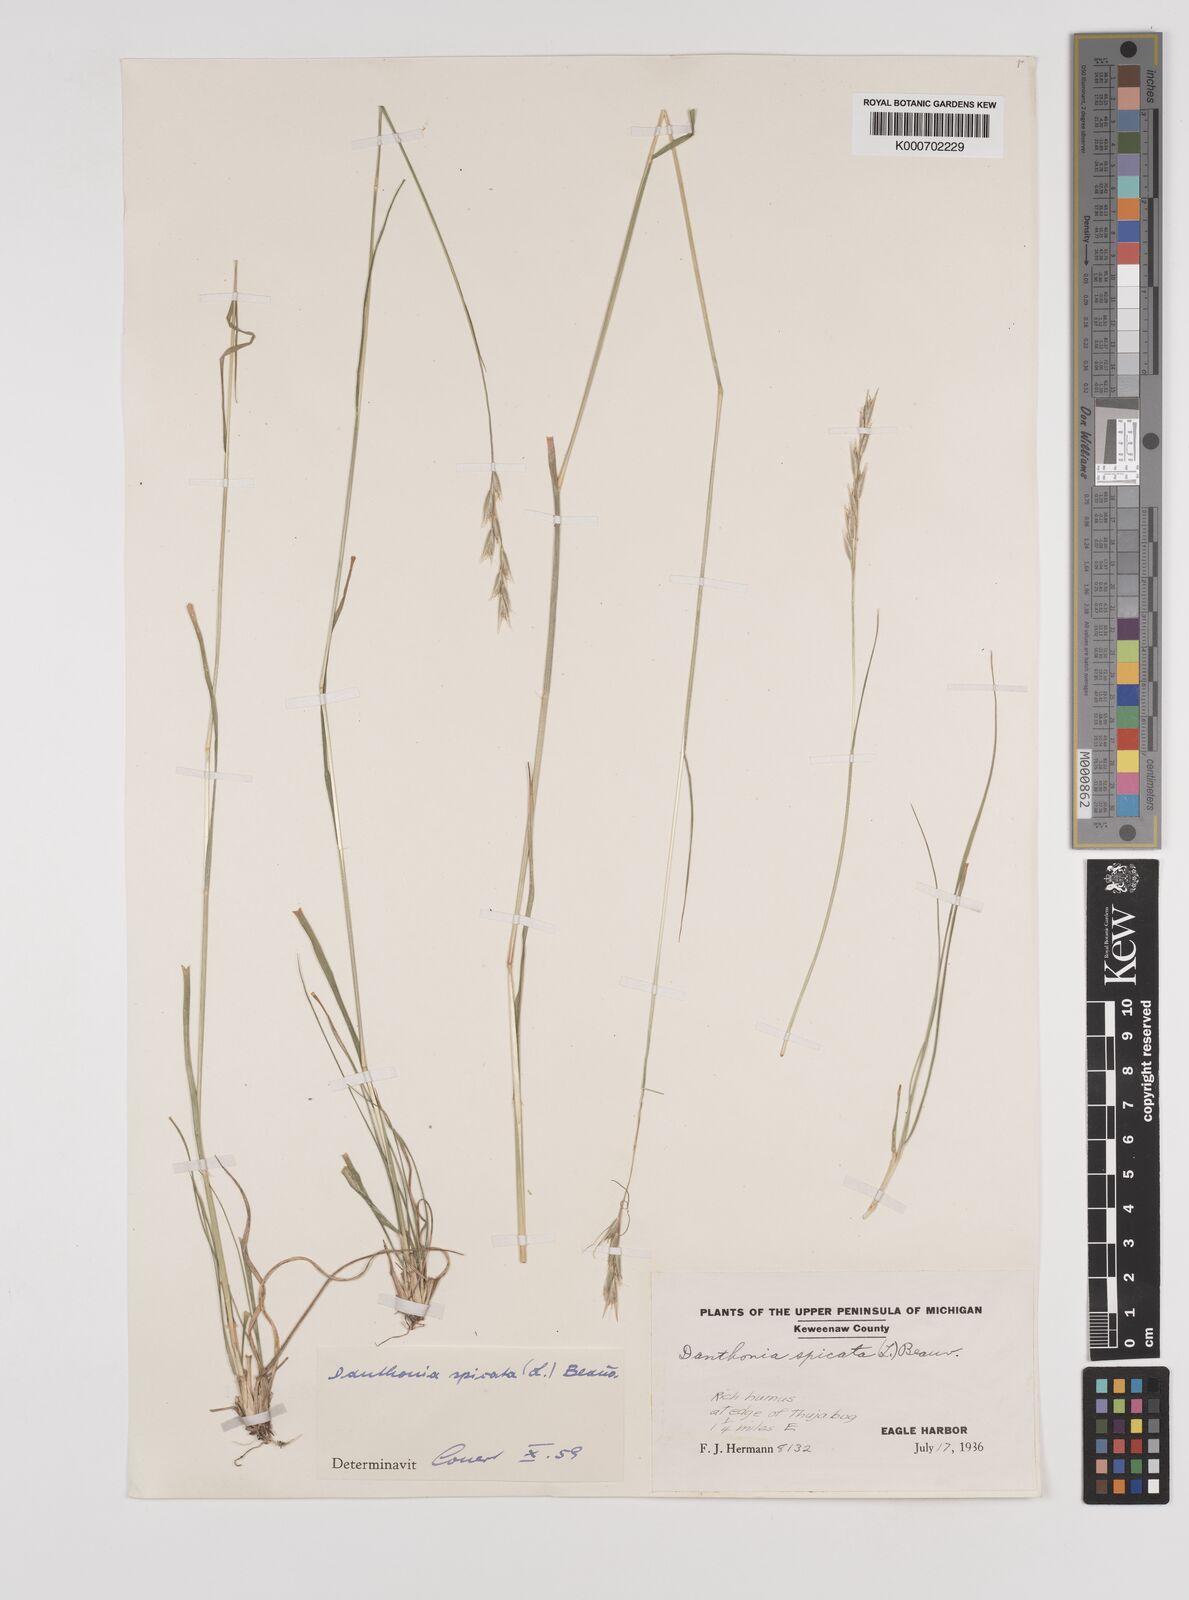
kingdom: Plantae
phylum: Tracheophyta
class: Liliopsida
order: Poales
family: Poaceae
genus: Danthonia
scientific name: Danthonia spicata
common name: Common wild oatgrass
